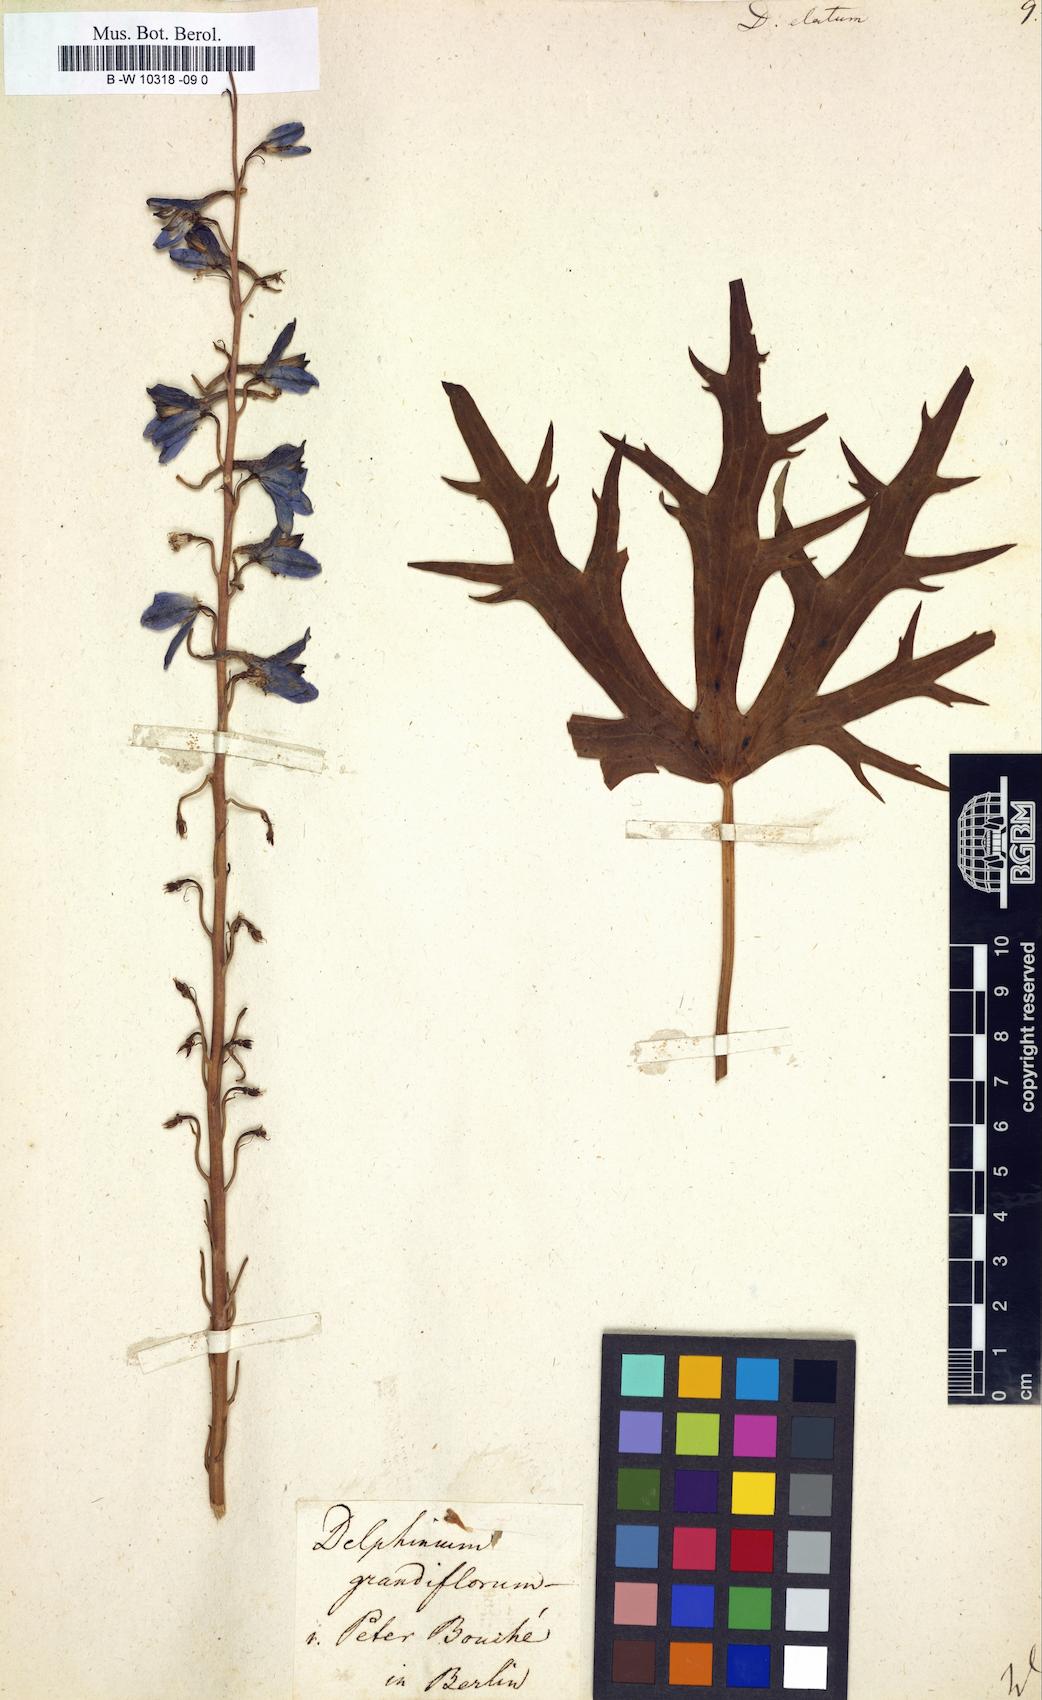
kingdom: Plantae
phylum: Tracheophyta
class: Magnoliopsida
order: Ranunculales
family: Ranunculaceae
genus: Delphinium
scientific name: Delphinium elatum
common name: Candle larkspur
